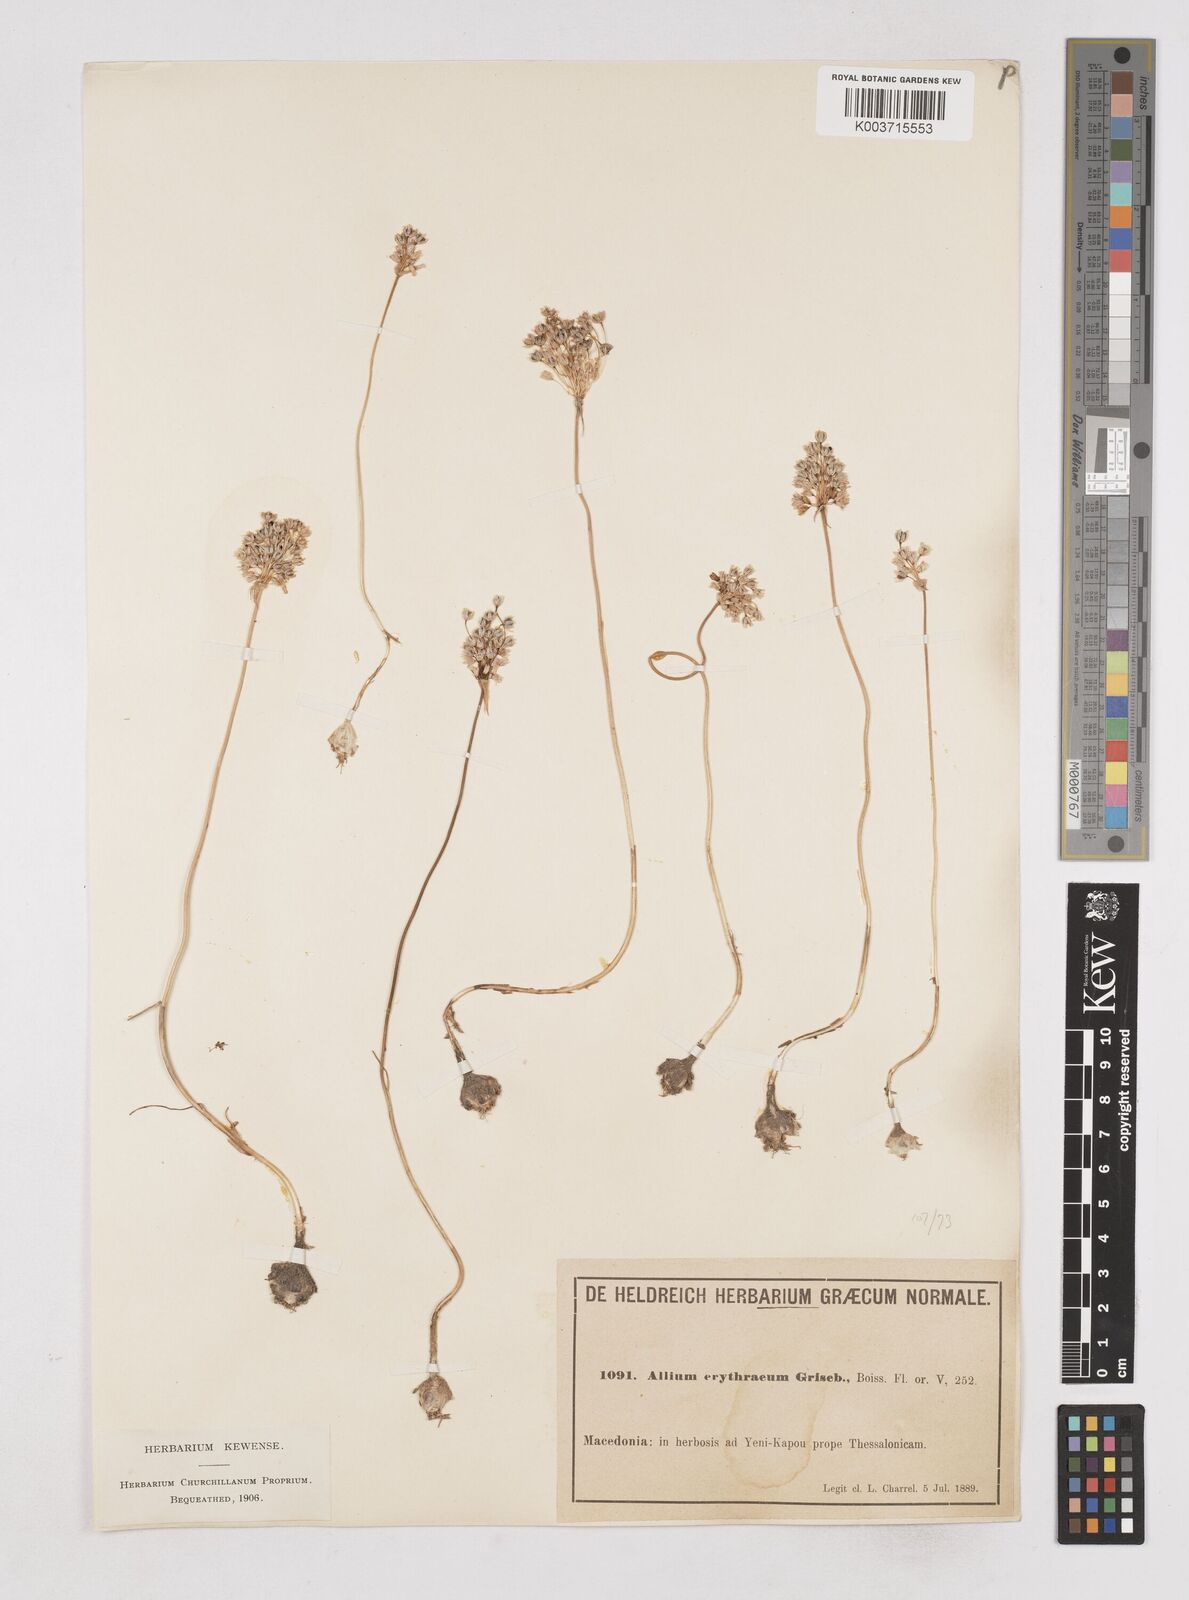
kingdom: Plantae
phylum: Tracheophyta
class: Liliopsida
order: Asparagales
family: Amaryllidaceae
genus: Allium
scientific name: Allium
